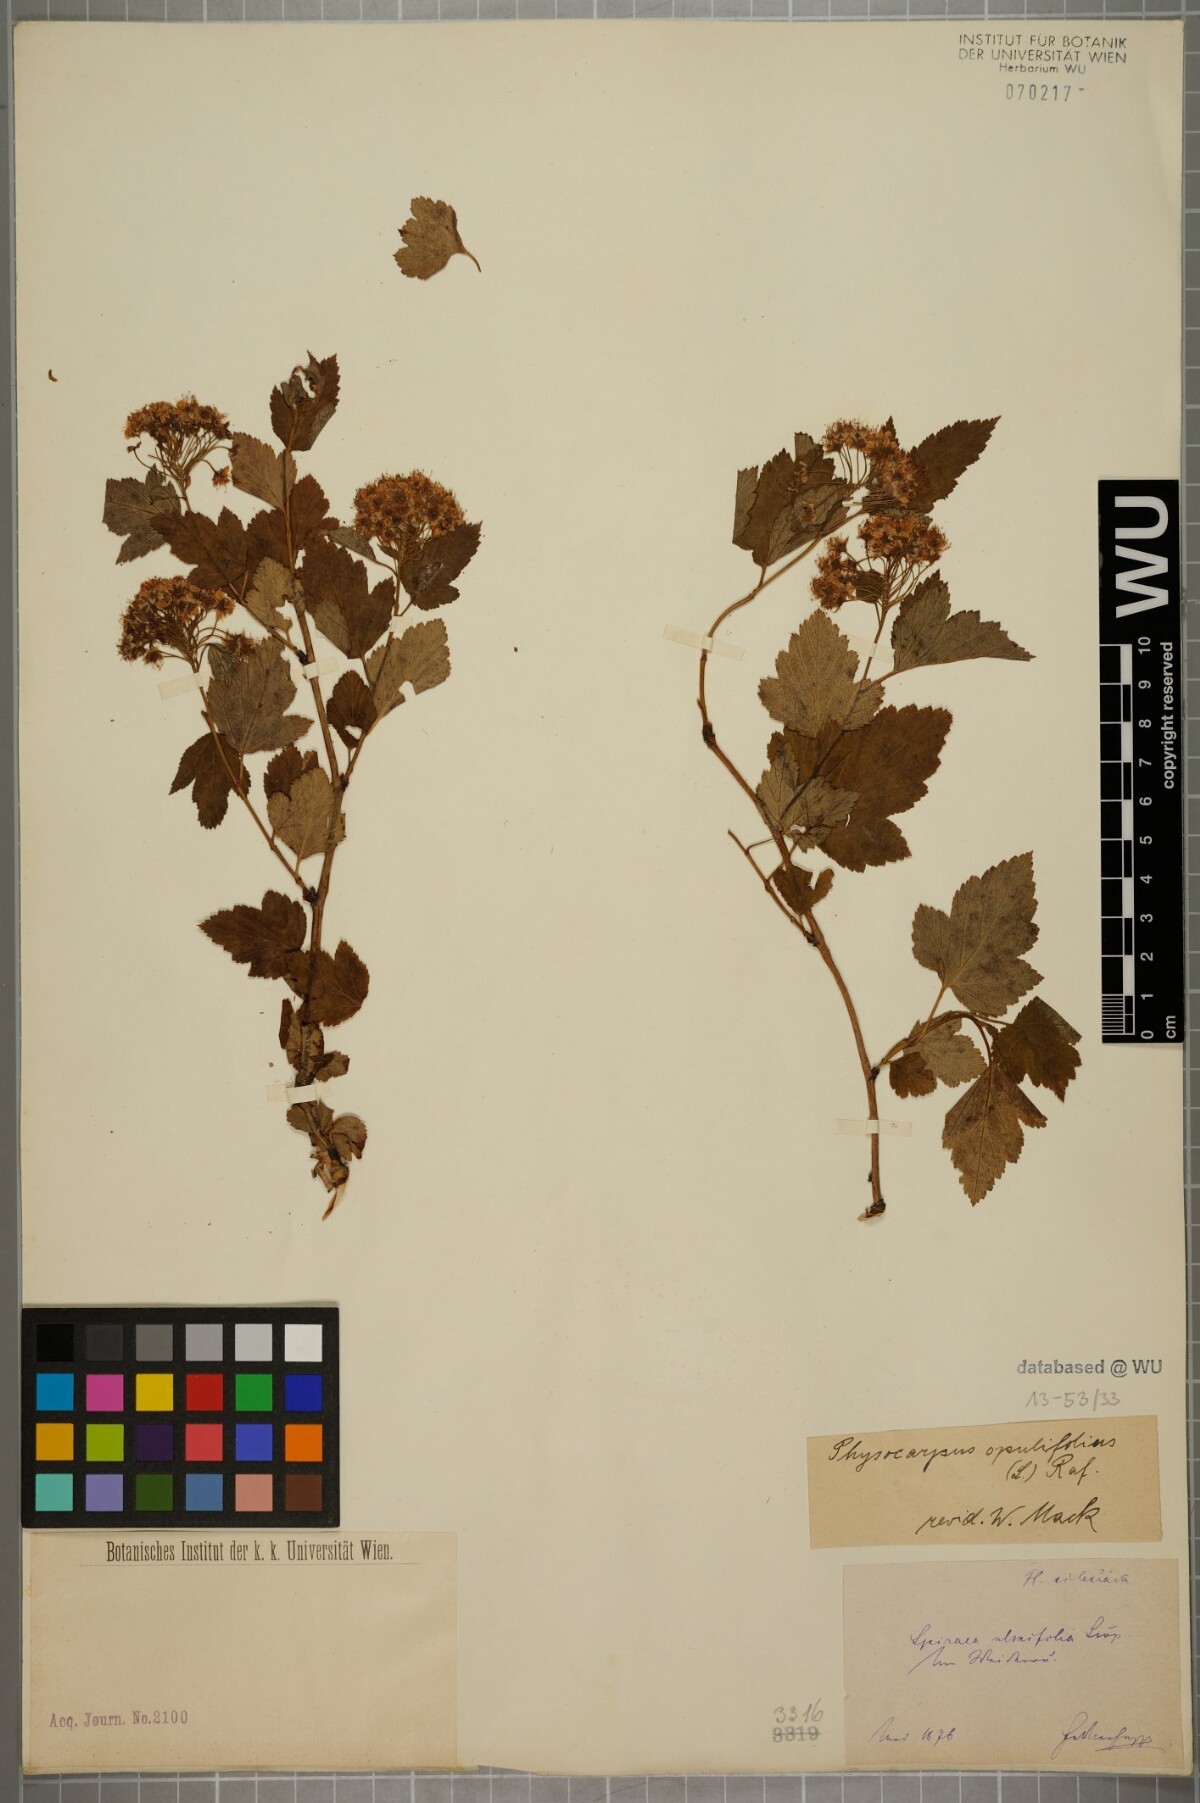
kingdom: Plantae
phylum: Tracheophyta
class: Magnoliopsida
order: Rosales
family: Rosaceae
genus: Physocarpus
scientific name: Physocarpus opulifolius
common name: Ninebark
